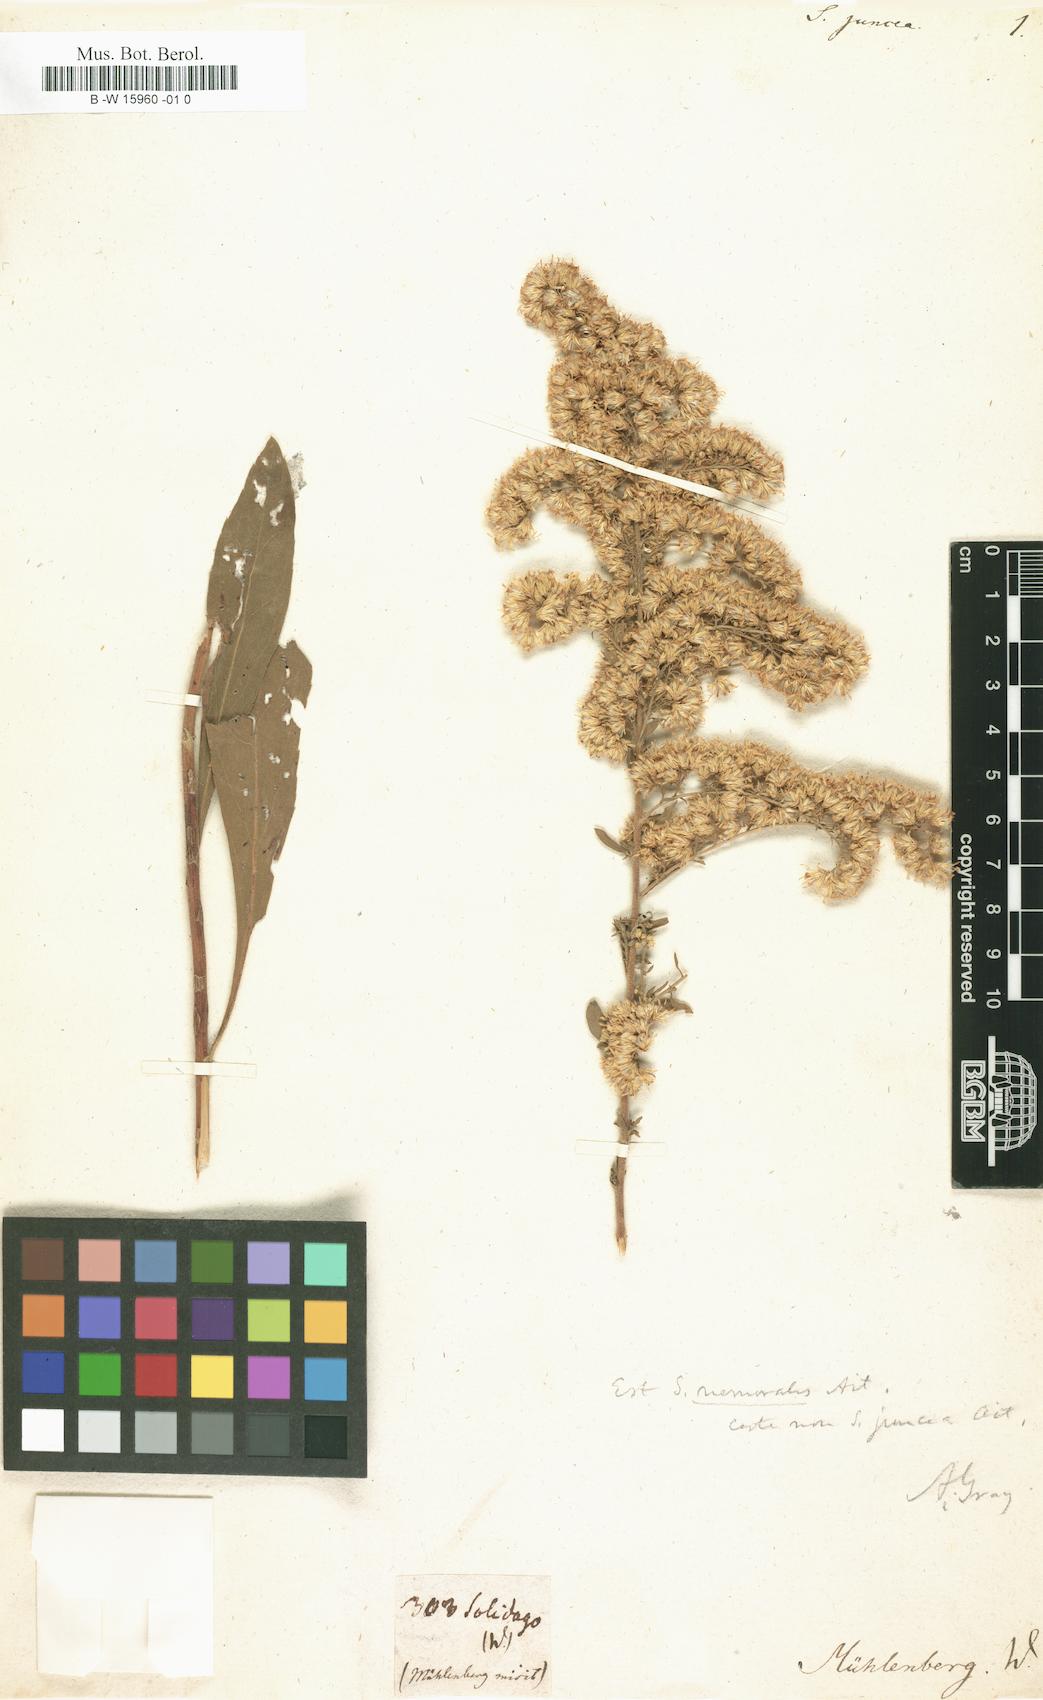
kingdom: Plantae
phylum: Tracheophyta
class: Magnoliopsida
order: Asterales
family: Asteraceae
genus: Solidago
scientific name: Solidago juncea
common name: Early goldenrod
